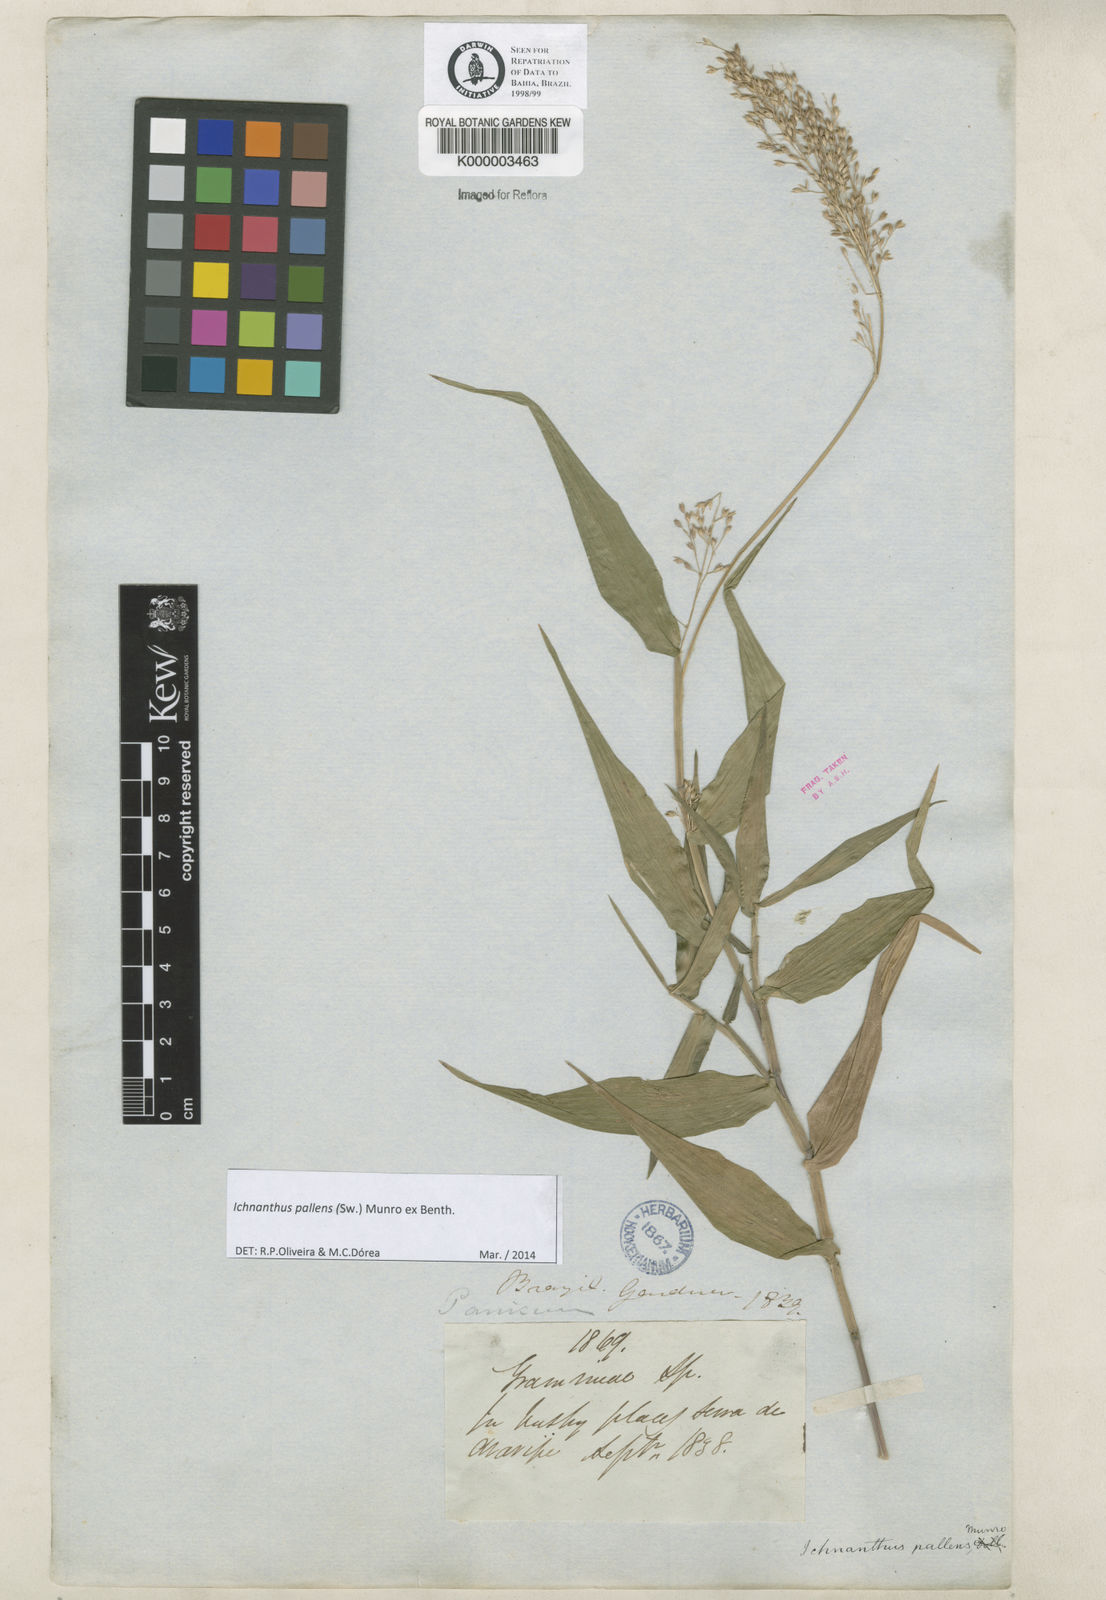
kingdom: Plantae
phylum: Tracheophyta
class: Liliopsida
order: Poales
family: Poaceae
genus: Ichnanthus
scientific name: Ichnanthus
